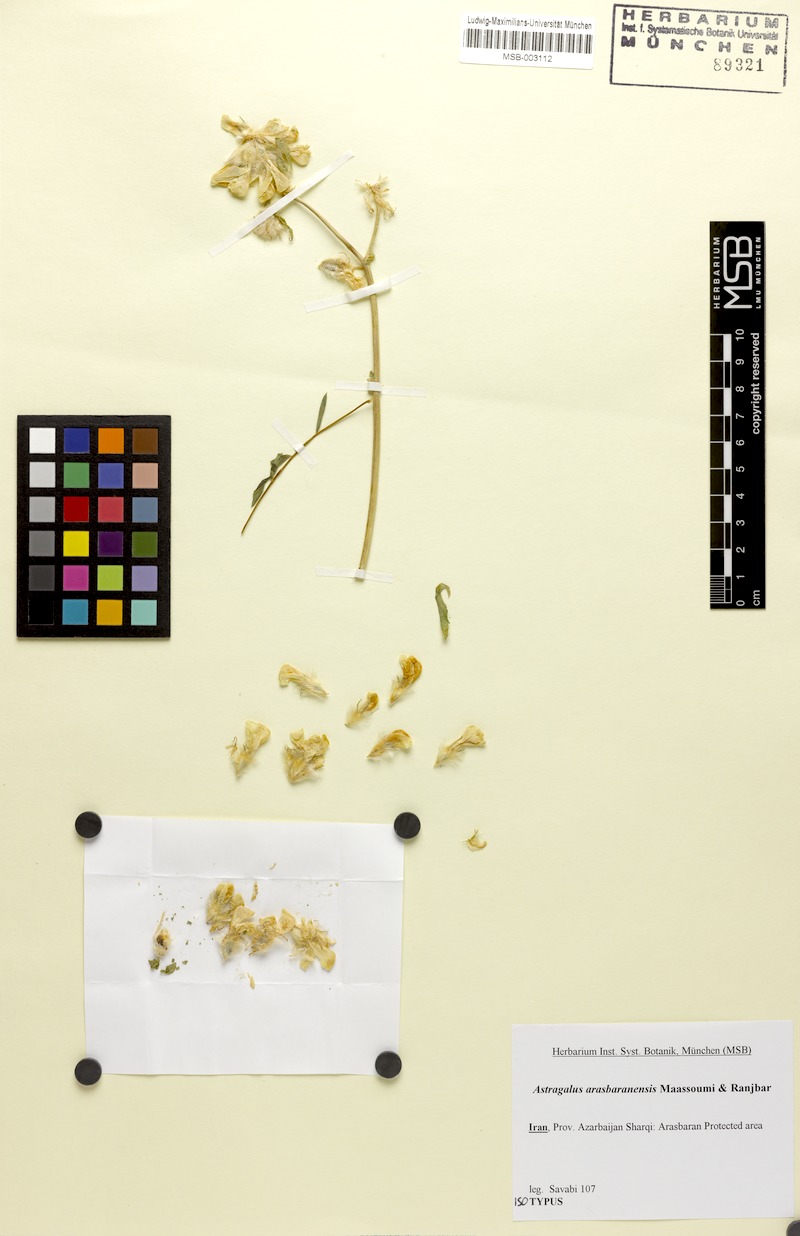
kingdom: Plantae
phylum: Tracheophyta
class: Magnoliopsida
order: Fabales
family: Fabaceae
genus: Astragalus
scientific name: Astragalus arasbaranensis
